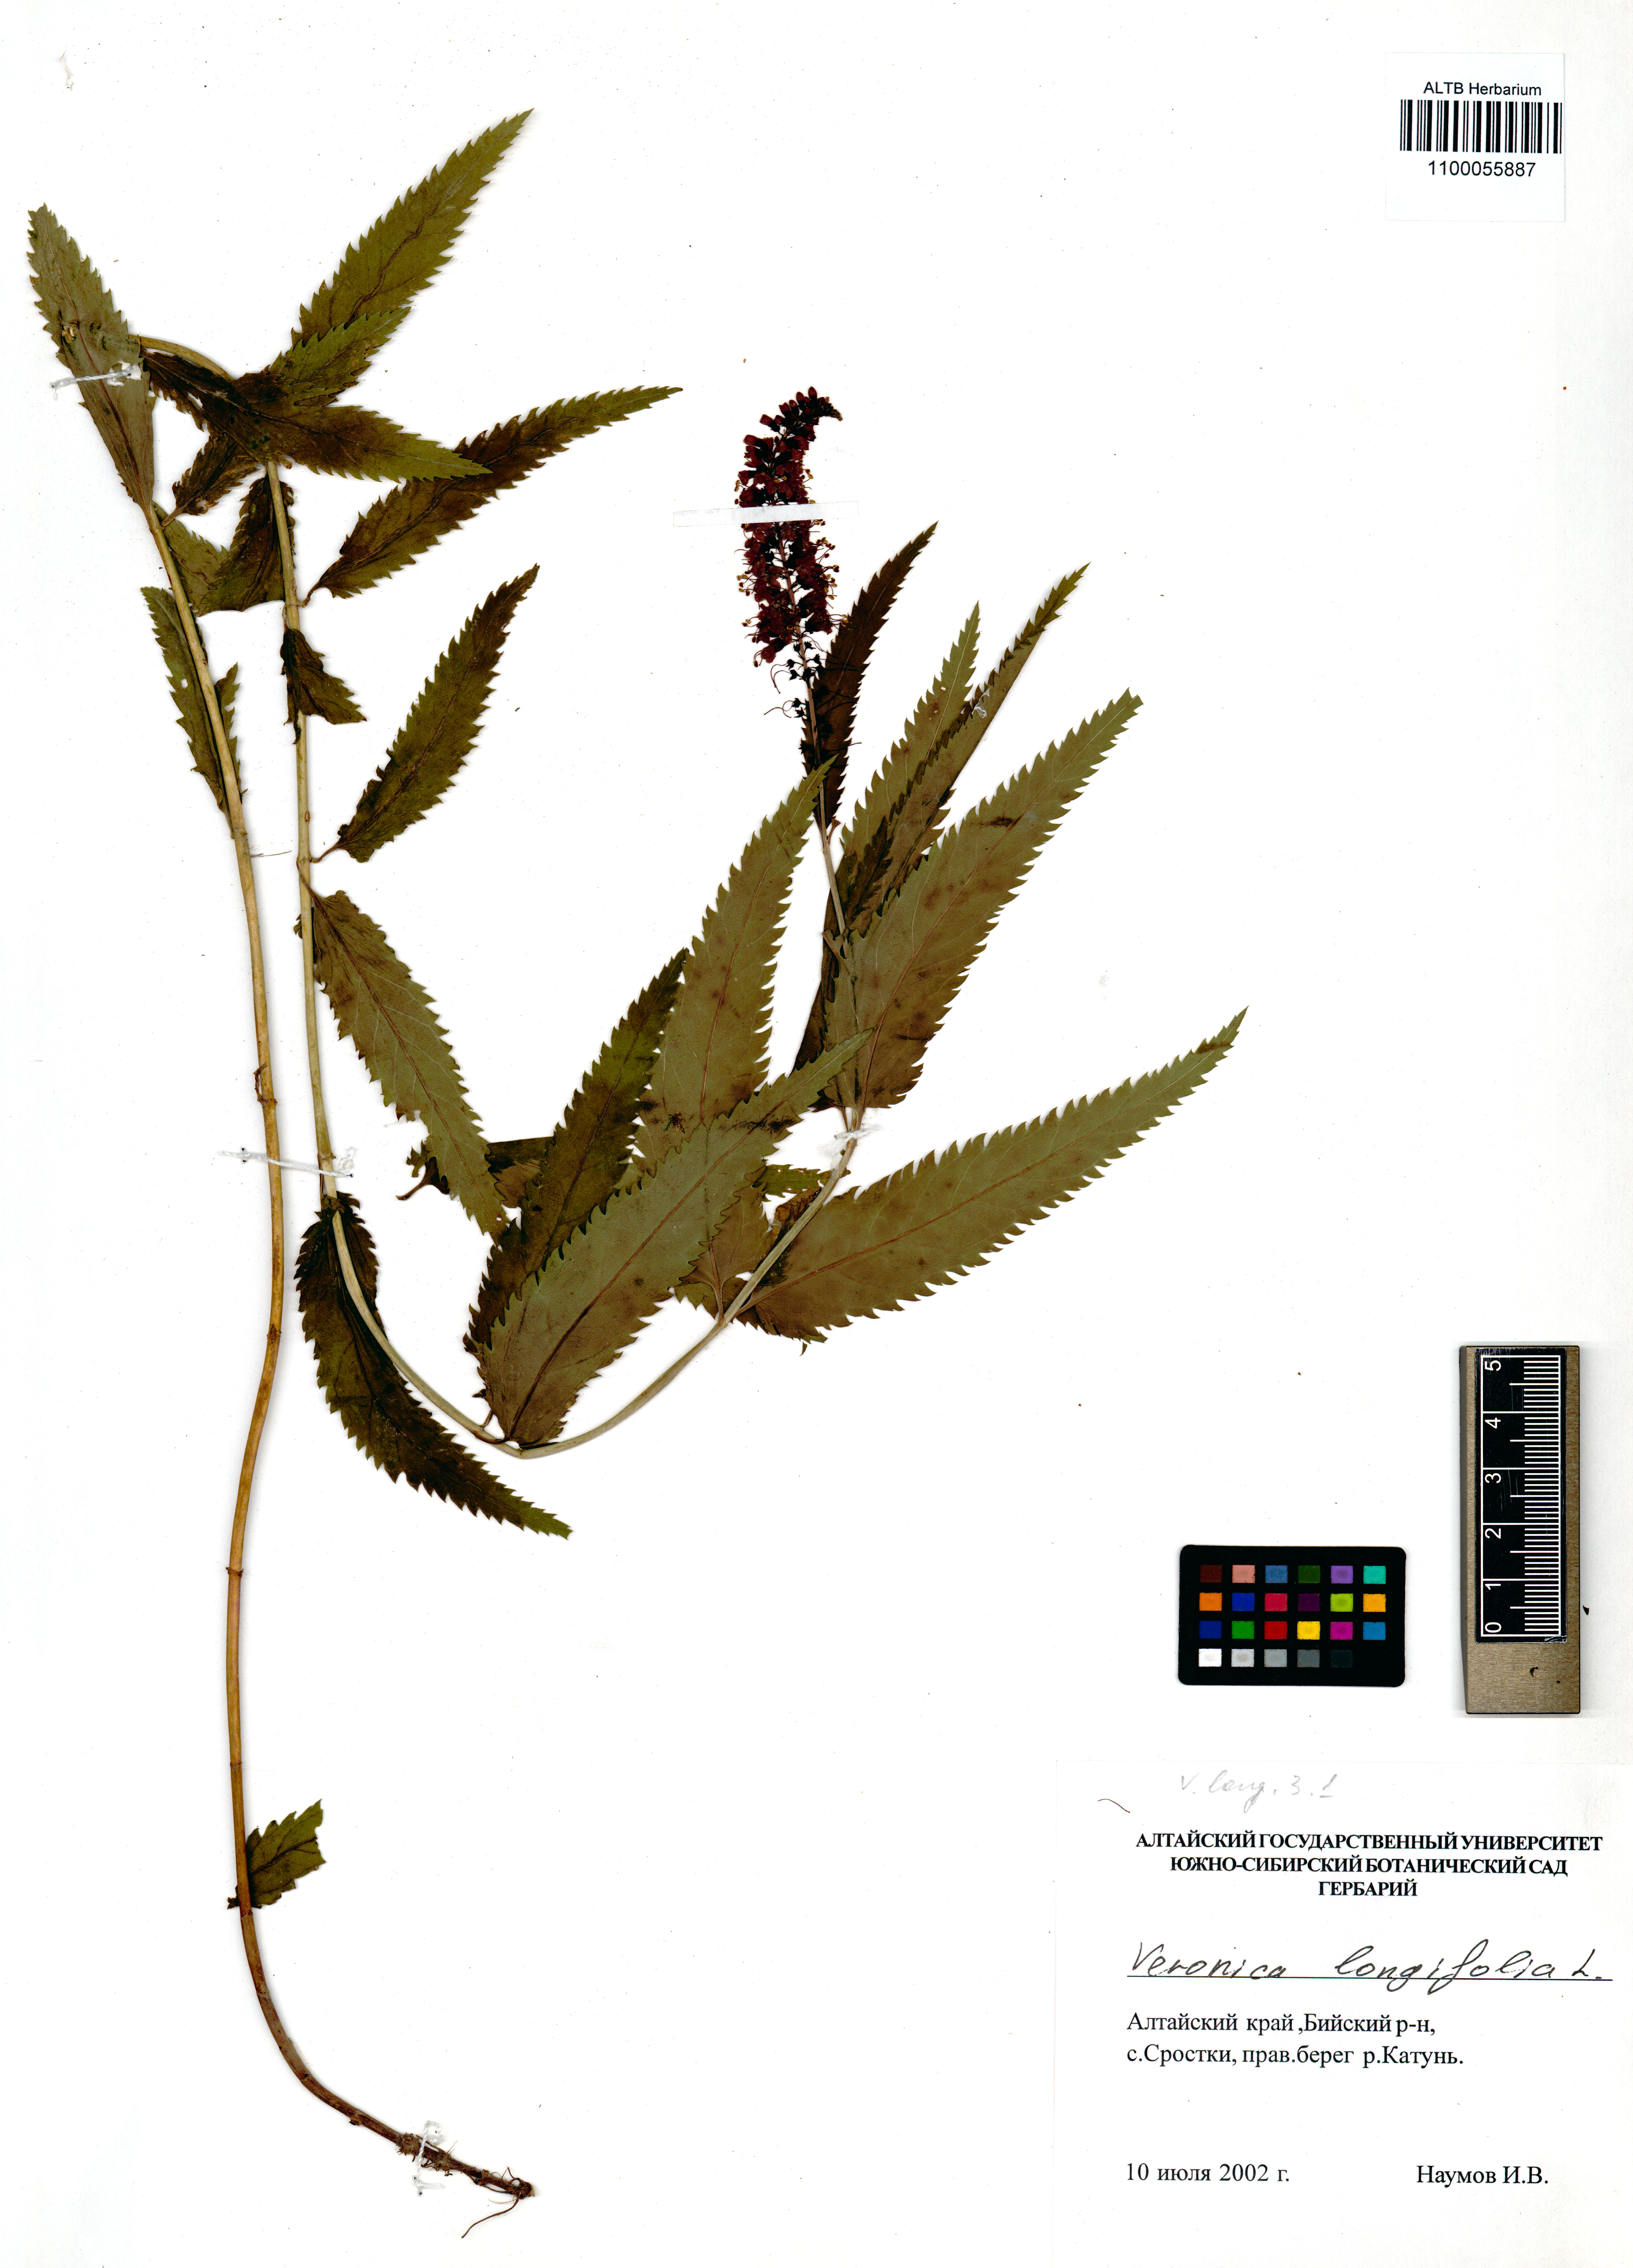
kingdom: Plantae
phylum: Tracheophyta
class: Magnoliopsida
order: Lamiales
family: Plantaginaceae
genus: Veronica
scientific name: Veronica longifolia
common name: Garden speedwell
